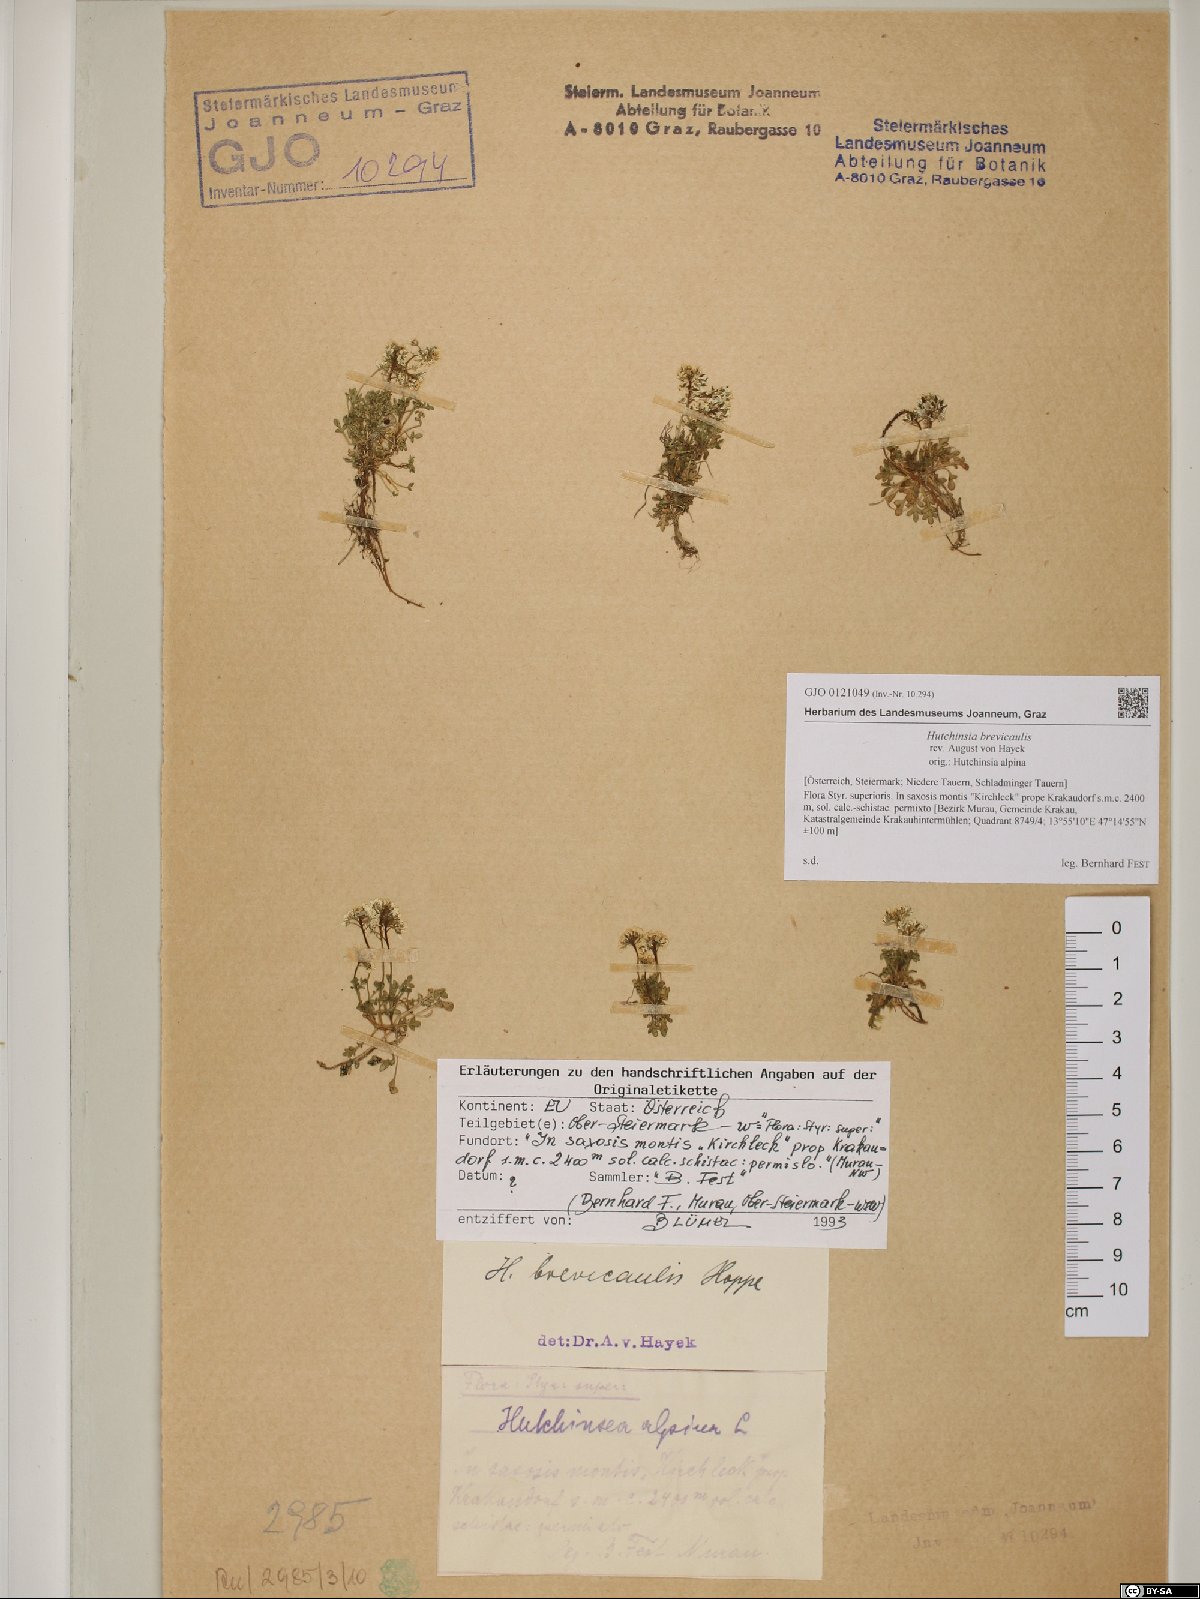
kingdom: Plantae
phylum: Tracheophyta
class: Magnoliopsida
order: Brassicales
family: Brassicaceae
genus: Hornungia
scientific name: Hornungia alpina
